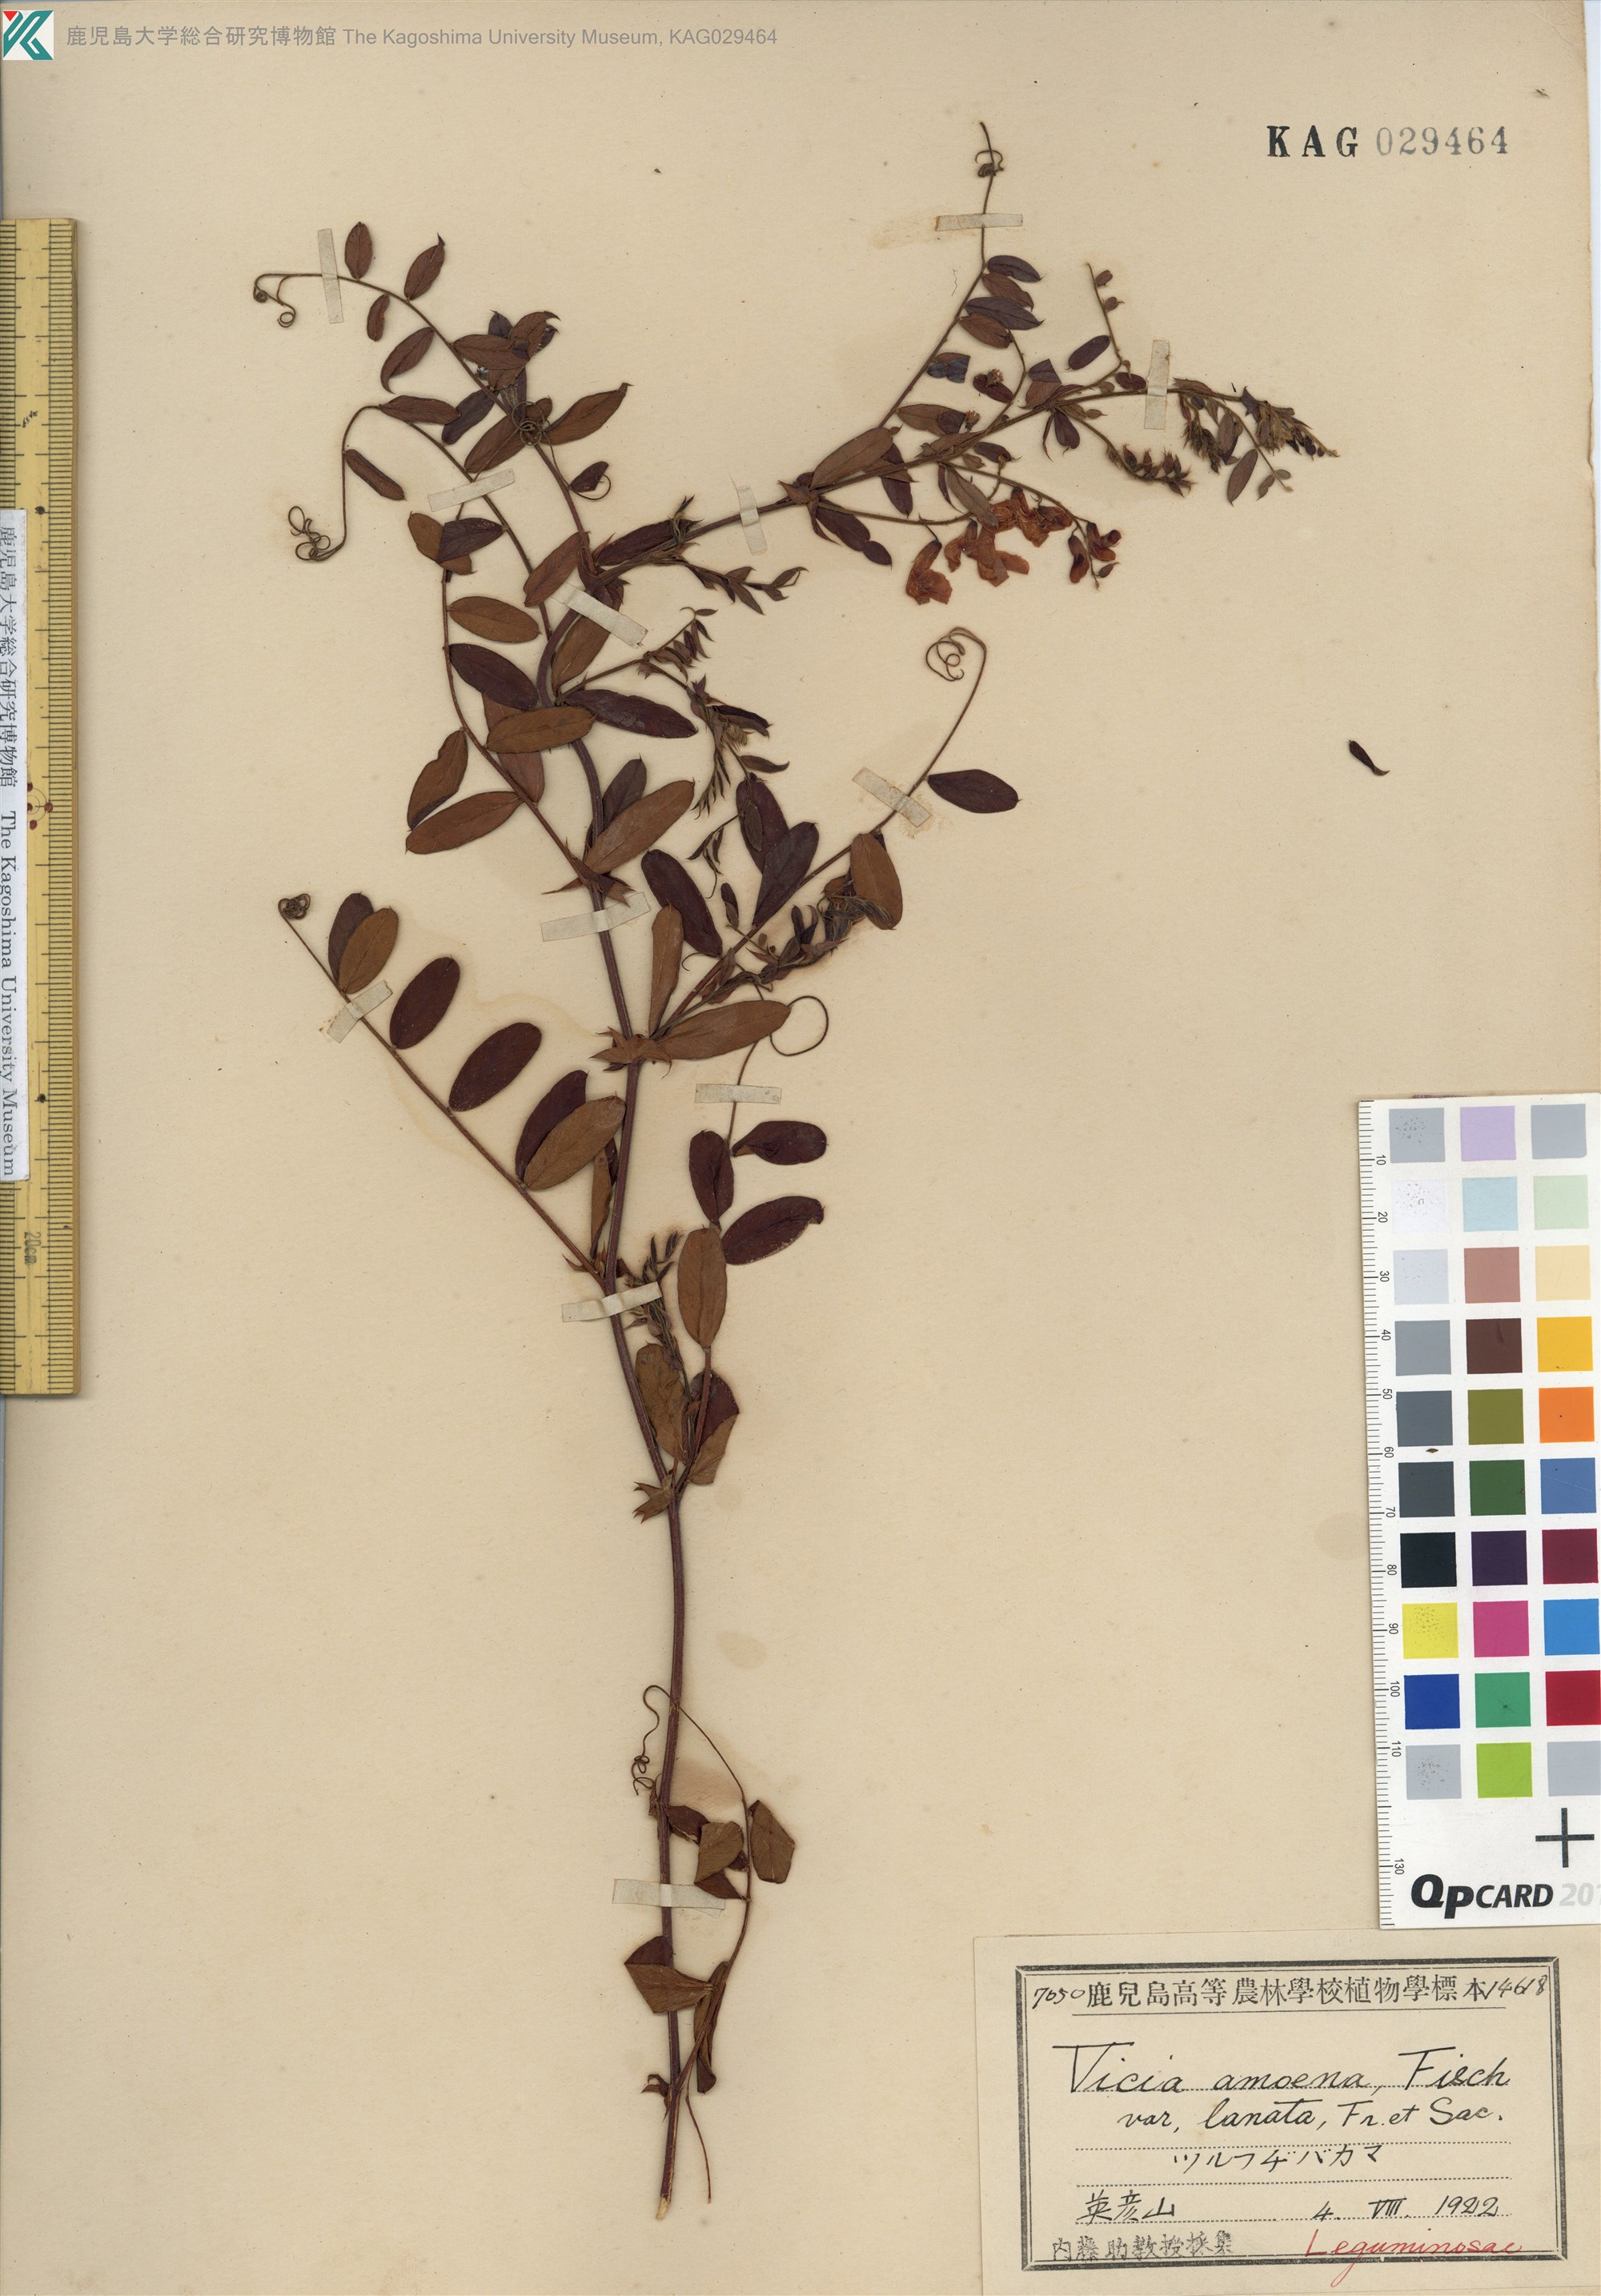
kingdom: Plantae
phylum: Tracheophyta
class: Magnoliopsida
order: Fabales
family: Fabaceae
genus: Vicia
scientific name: Vicia amoena
